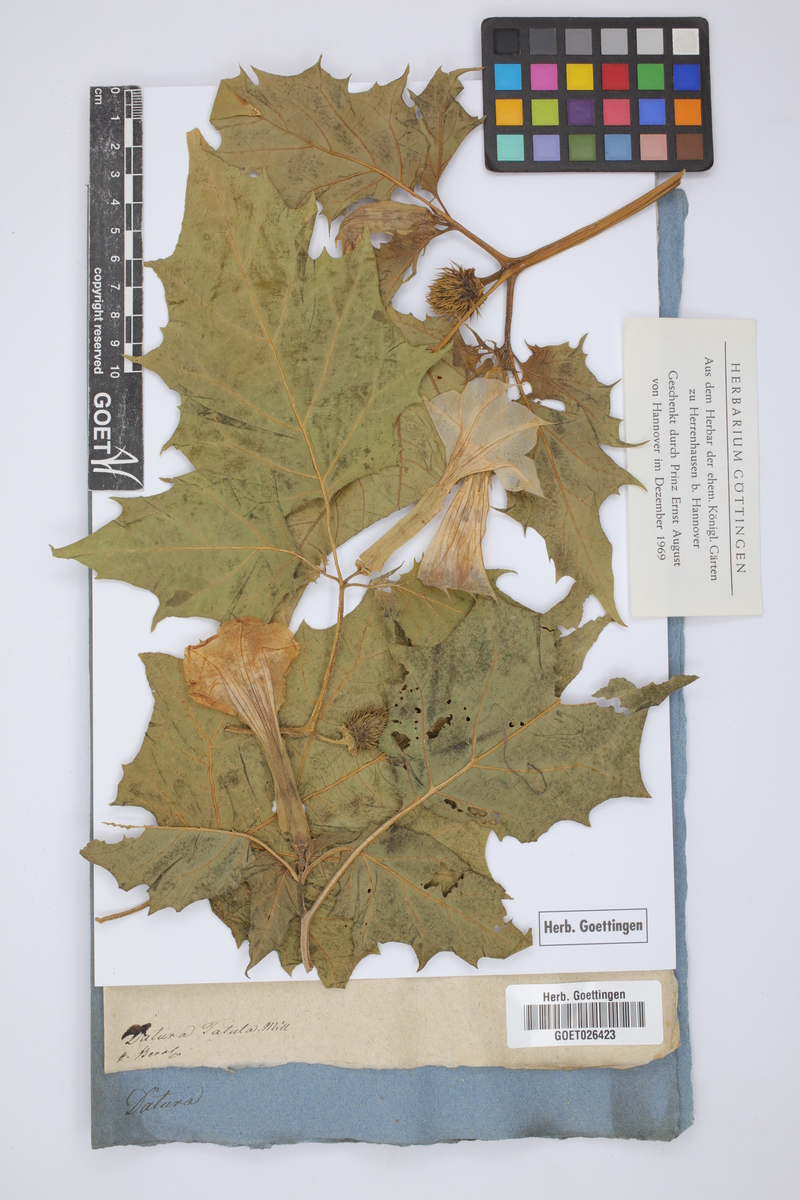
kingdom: Plantae
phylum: Tracheophyta
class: Magnoliopsida
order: Solanales
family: Solanaceae
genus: Datura
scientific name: Datura stramonium
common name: Thorn-apple
